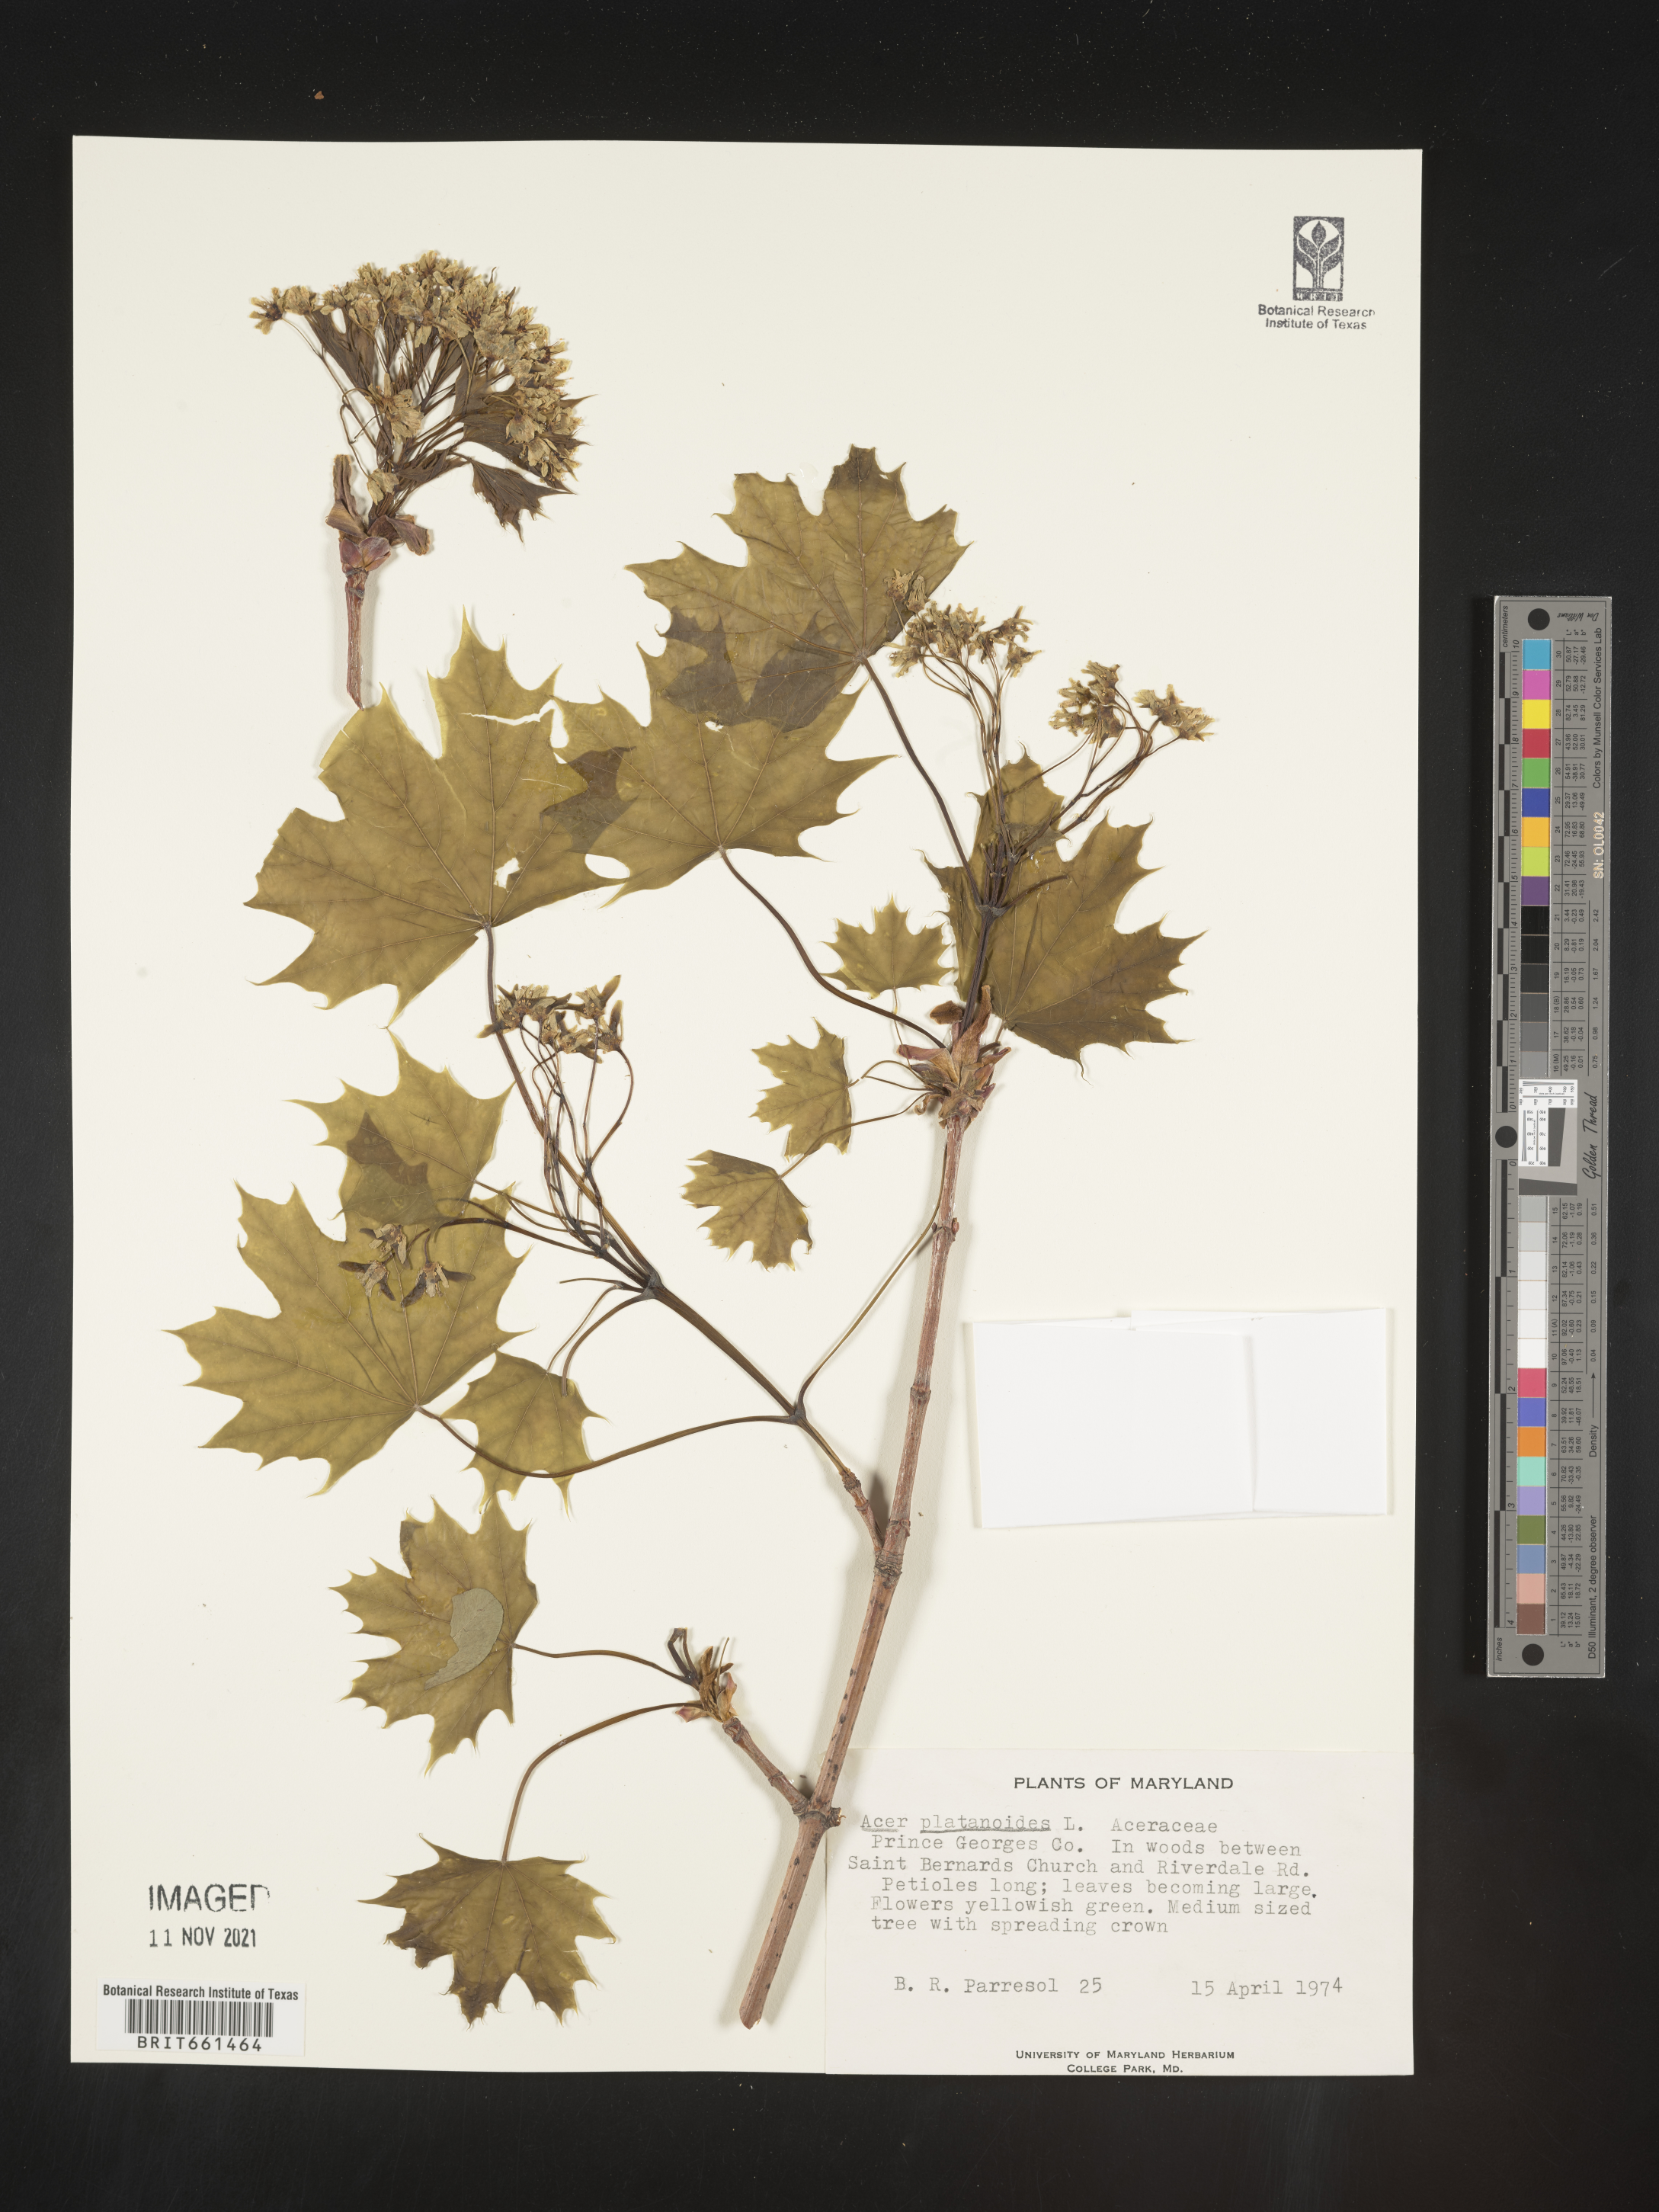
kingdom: Plantae
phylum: Tracheophyta
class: Magnoliopsida
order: Sapindales
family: Sapindaceae
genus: Acer
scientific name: Acer
